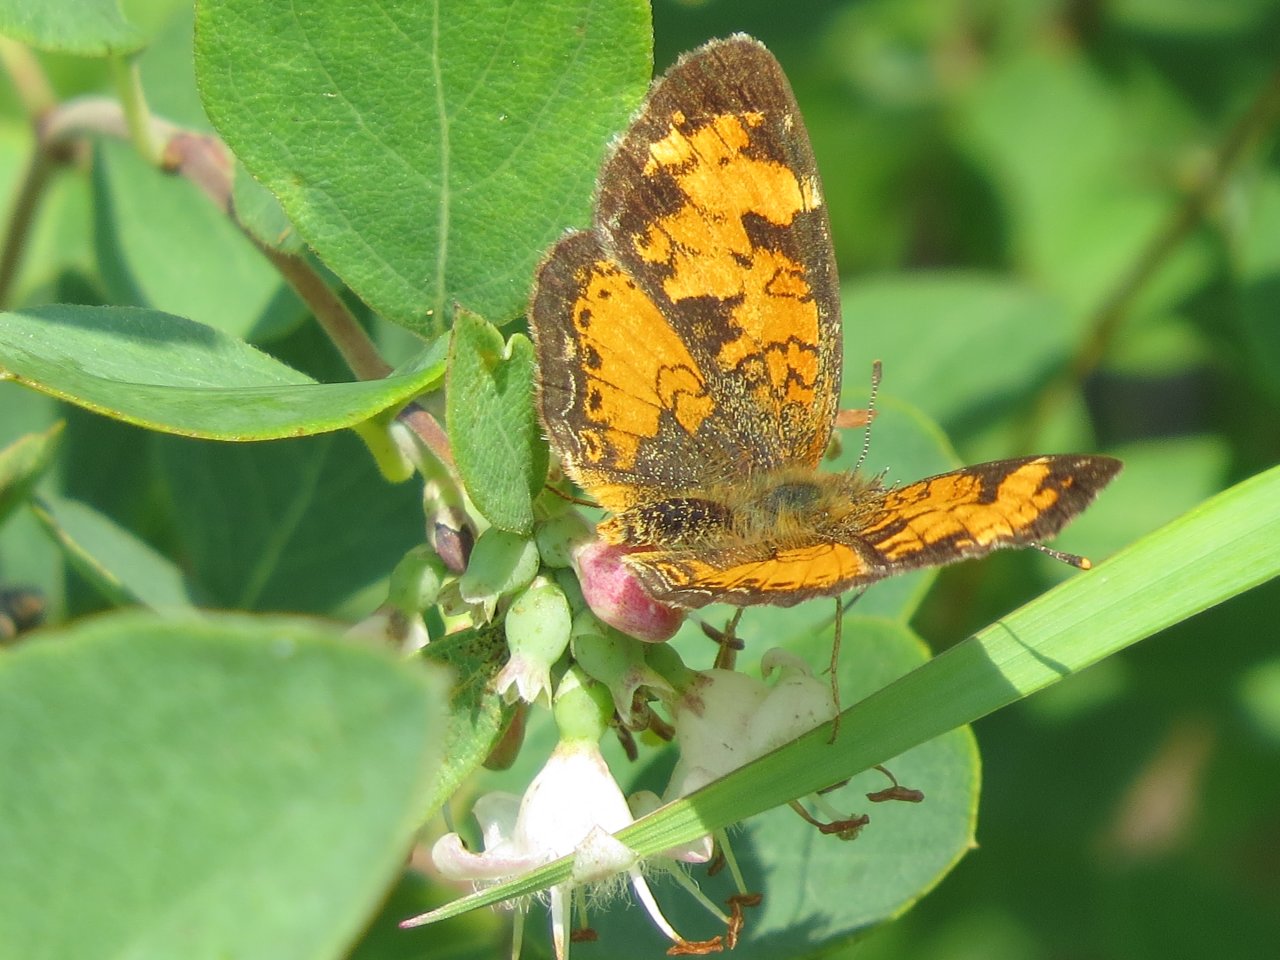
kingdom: Animalia
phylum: Arthropoda
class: Insecta
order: Lepidoptera
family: Nymphalidae
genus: Phyciodes
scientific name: Phyciodes tharos
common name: Northern Crescent
